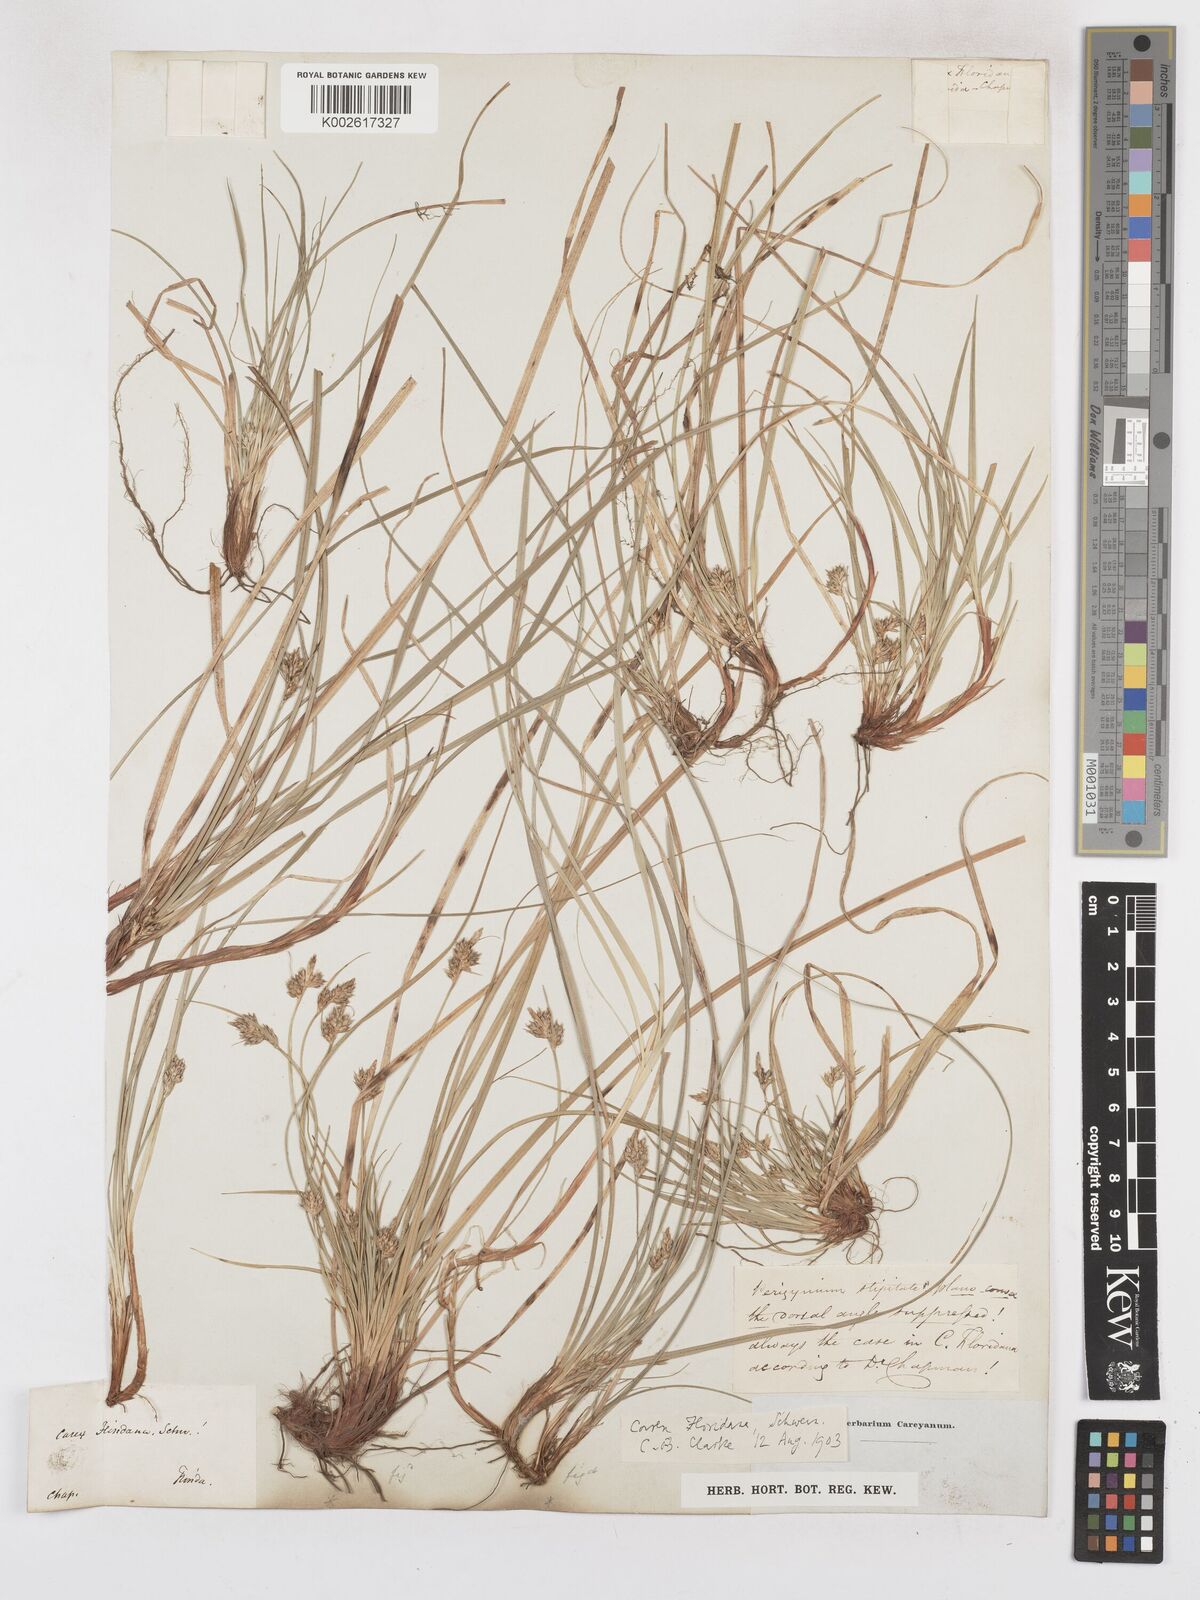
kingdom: Plantae
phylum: Tracheophyta
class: Liliopsida
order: Poales
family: Cyperaceae
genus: Carex
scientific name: Carex floridana
